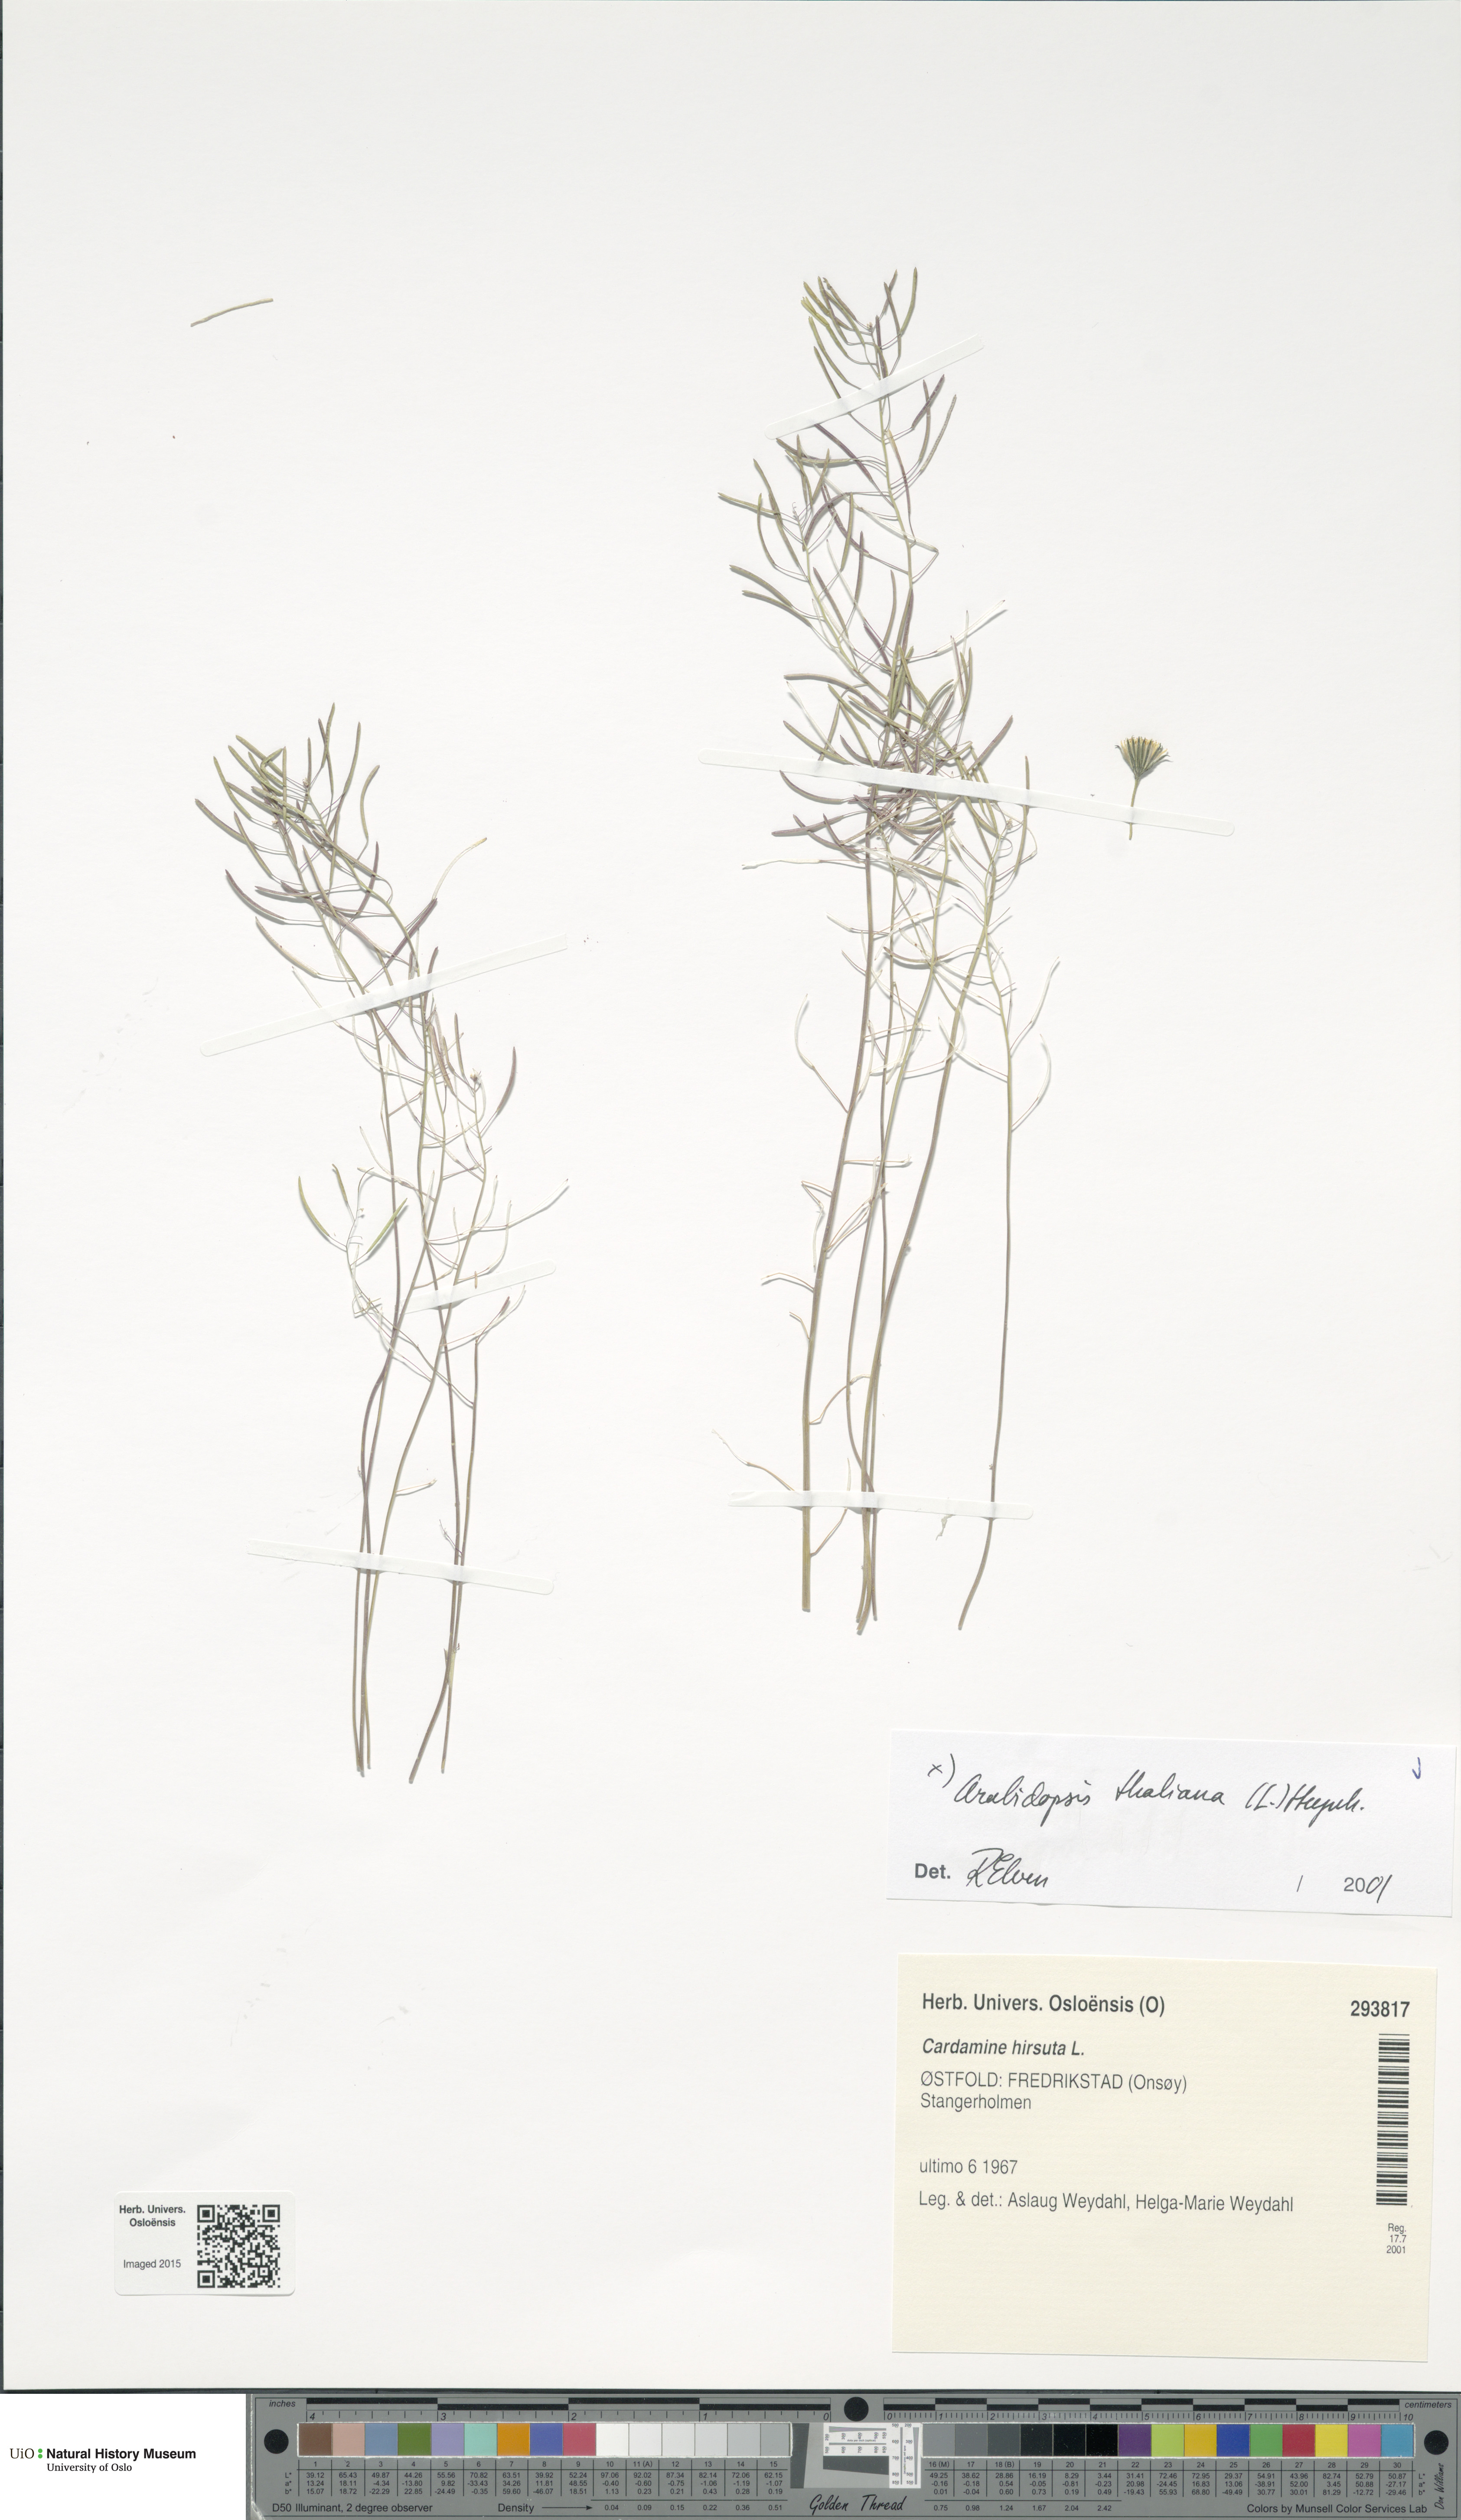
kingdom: Plantae
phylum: Tracheophyta
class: Magnoliopsida
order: Brassicales
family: Brassicaceae
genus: Arabidopsis
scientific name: Arabidopsis thaliana
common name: Thale cress
